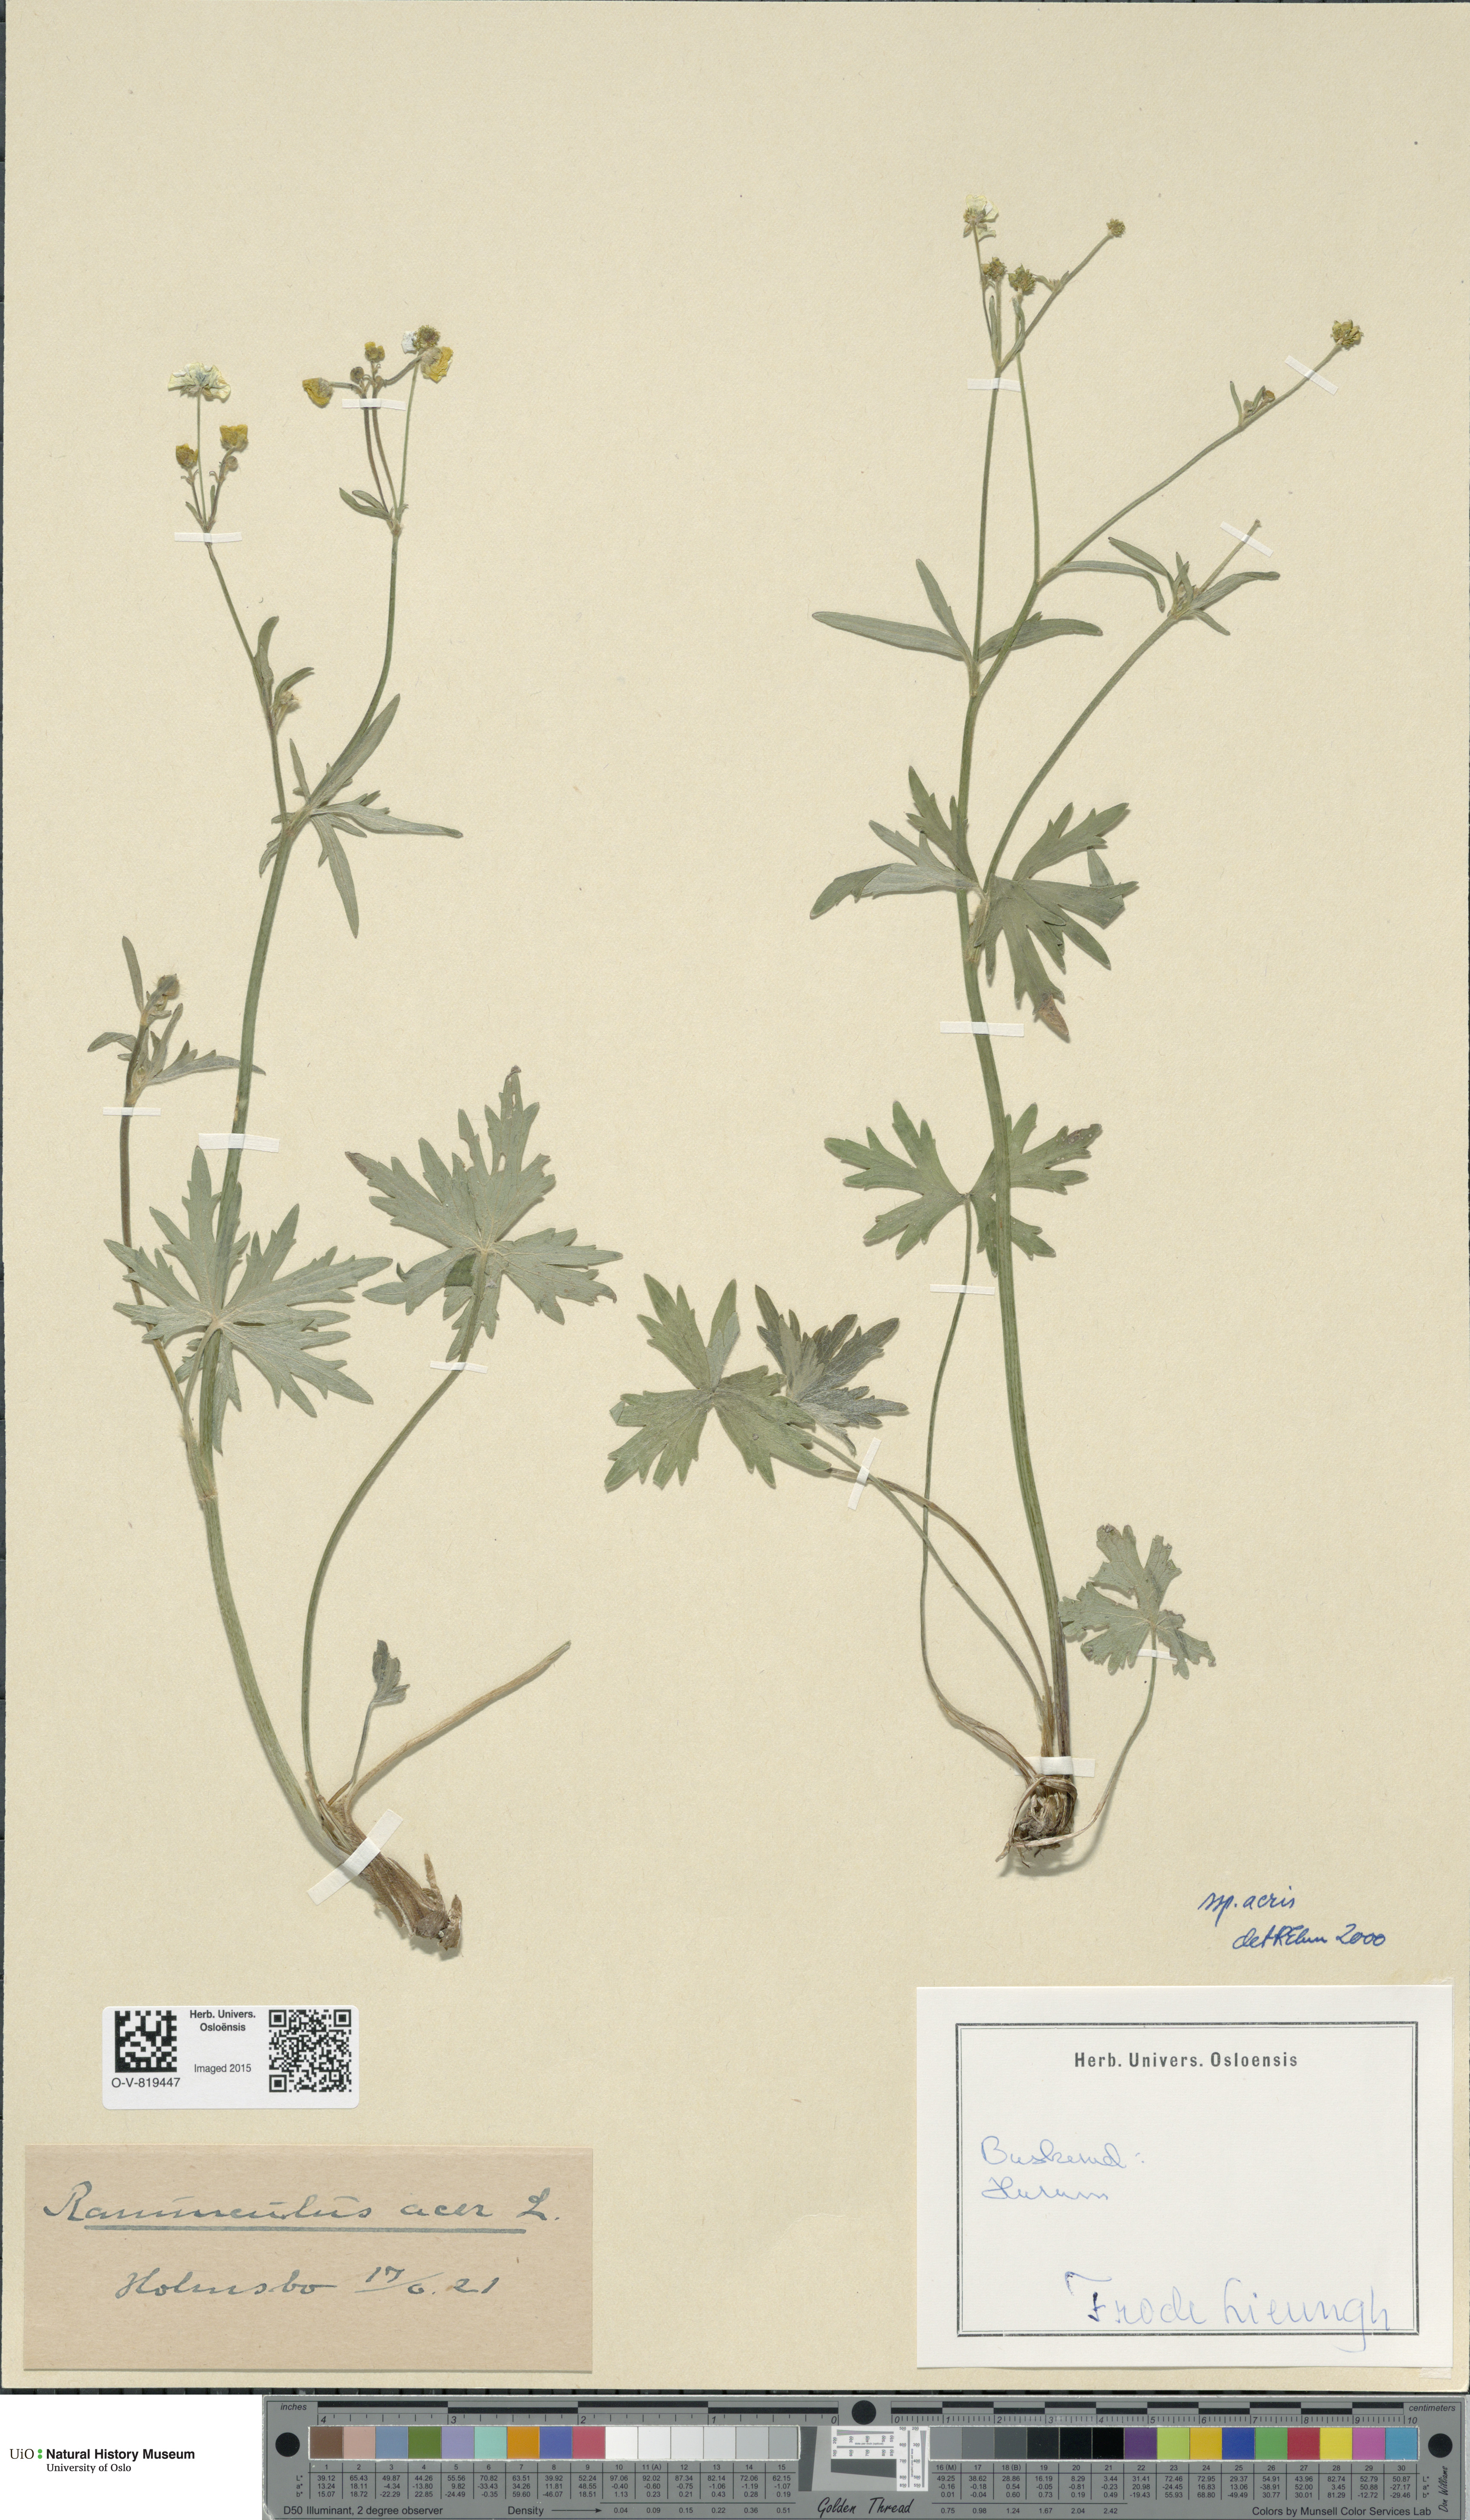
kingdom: Plantae
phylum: Tracheophyta
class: Magnoliopsida
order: Ranunculales
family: Ranunculaceae
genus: Ranunculus
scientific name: Ranunculus acris
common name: Meadow buttercup
